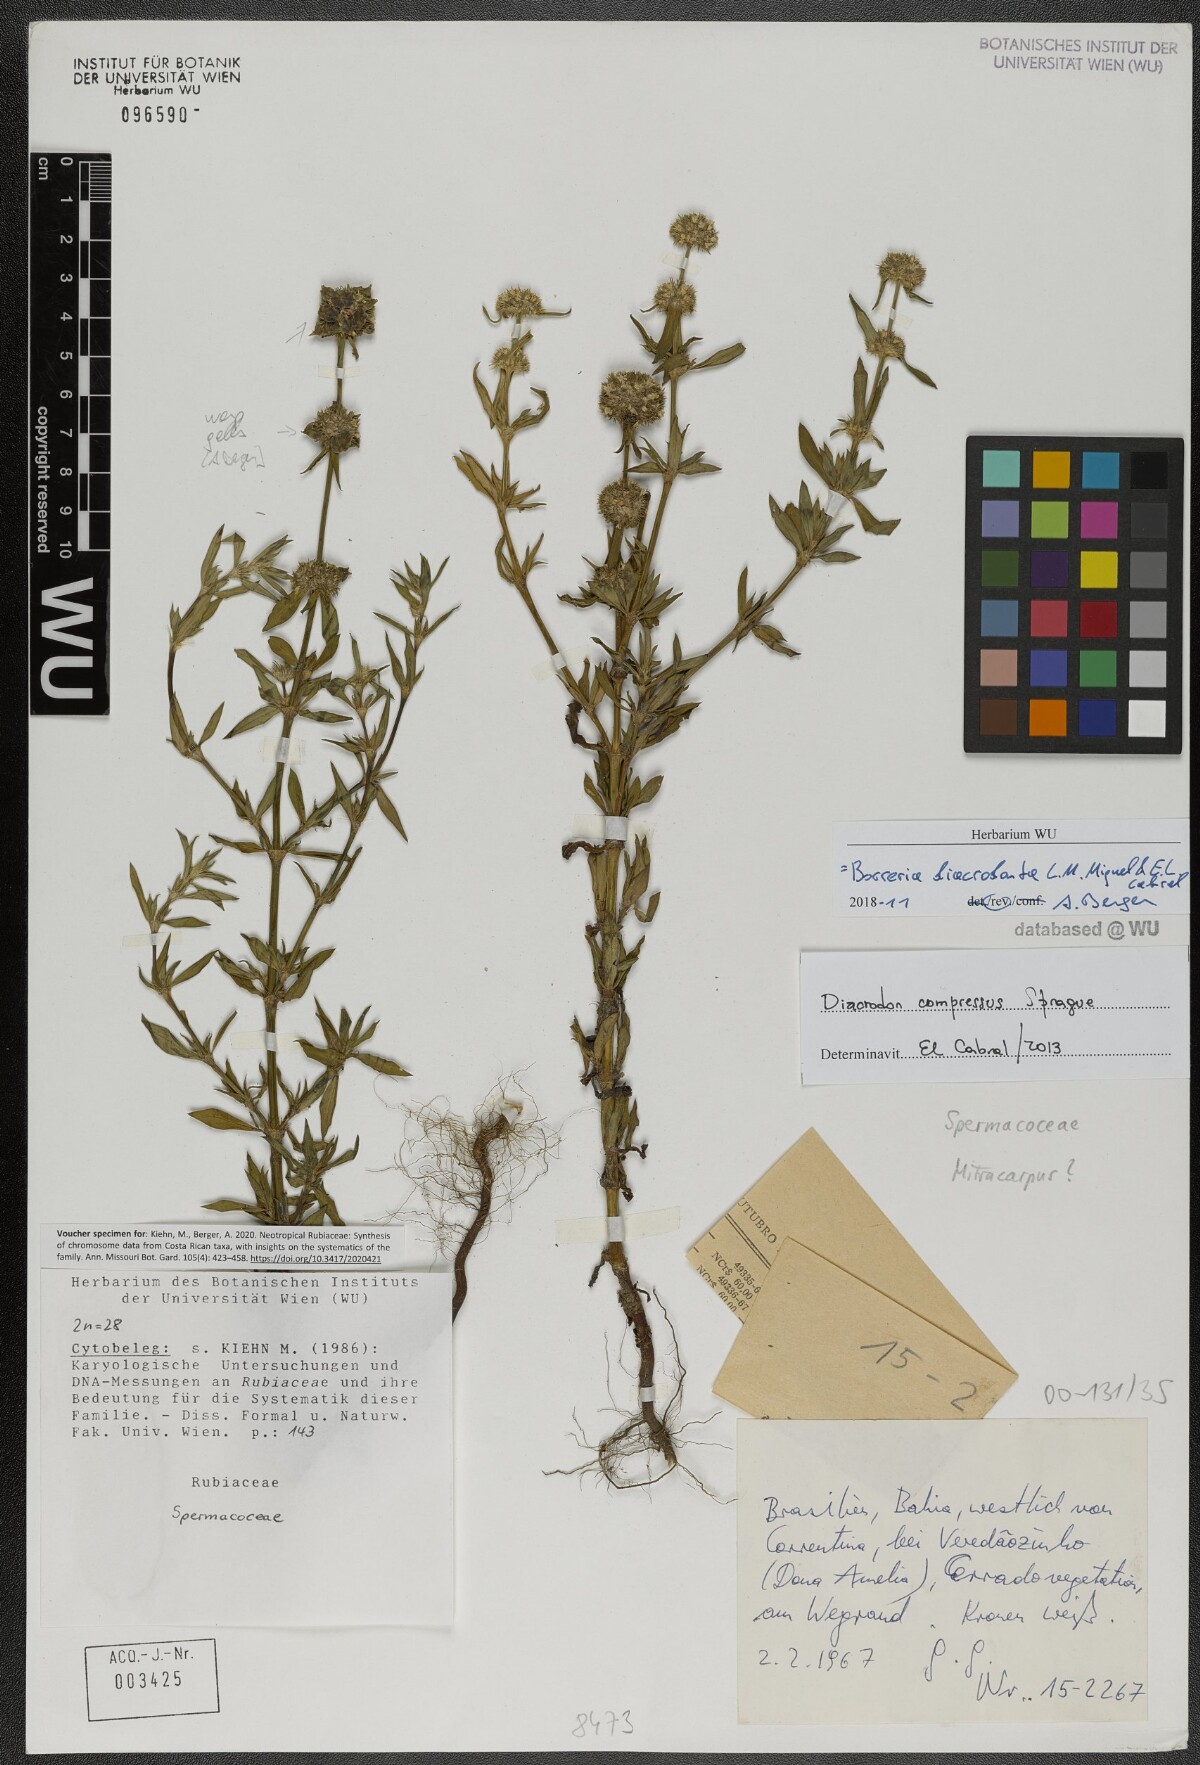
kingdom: Plantae
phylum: Tracheophyta
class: Magnoliopsida
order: Gentianales
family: Rubiaceae
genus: Spermacoce
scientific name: Spermacoce Borreria diacrodonta
